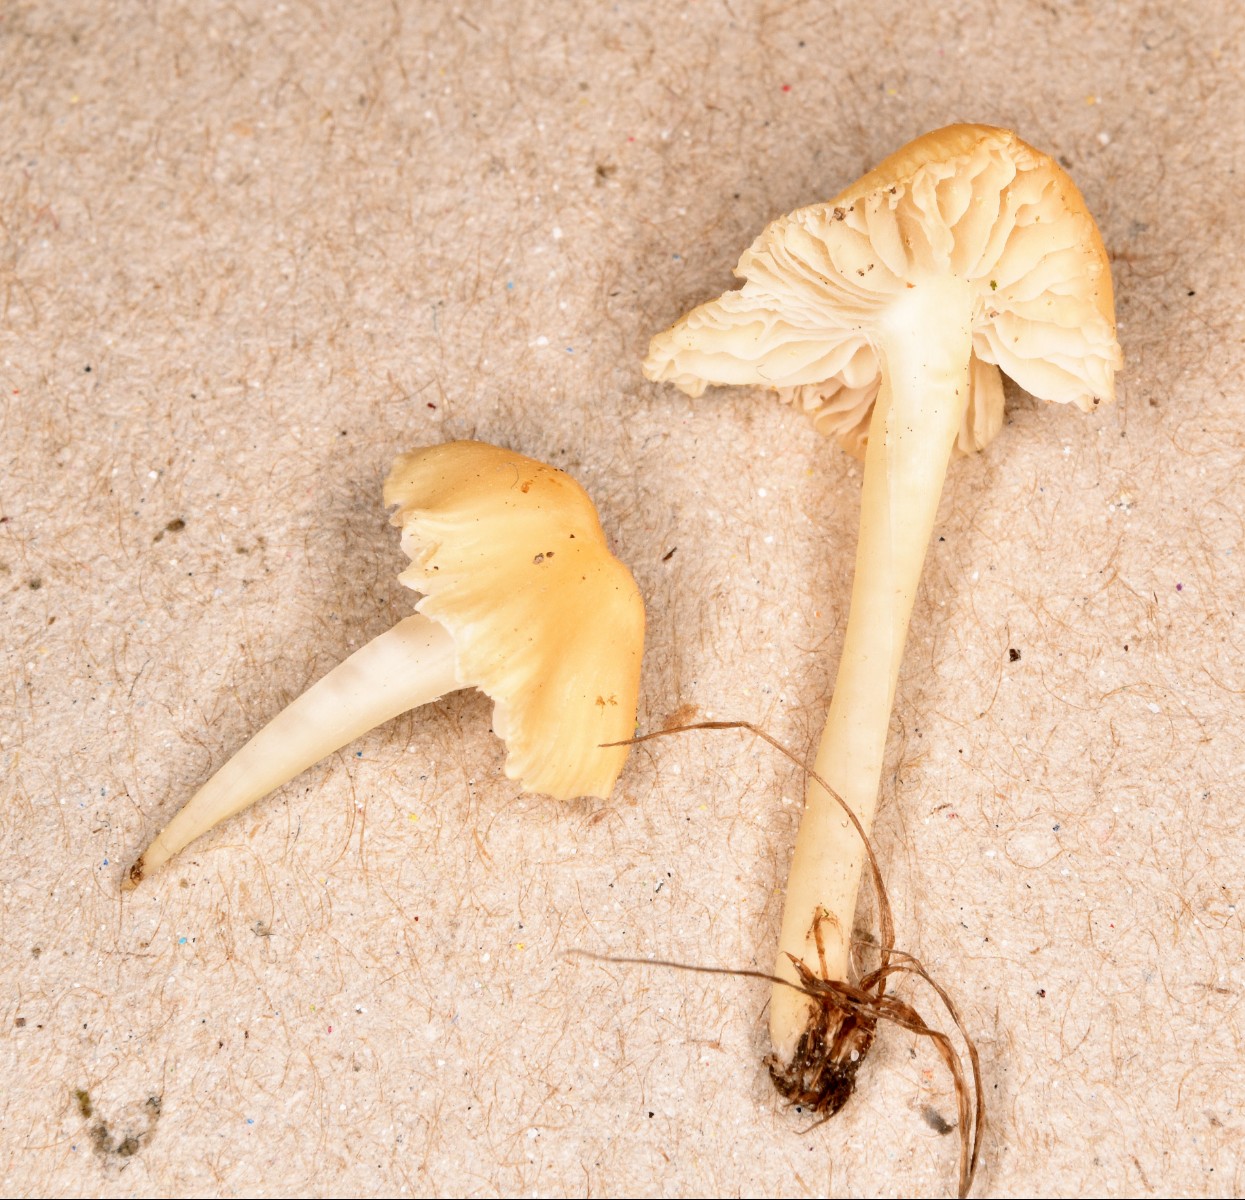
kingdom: Fungi
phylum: Basidiomycota
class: Agaricomycetes
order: Agaricales
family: Mycenaceae
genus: Atheniella
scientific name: Atheniella flavoalba
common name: gulhvid huesvamp
